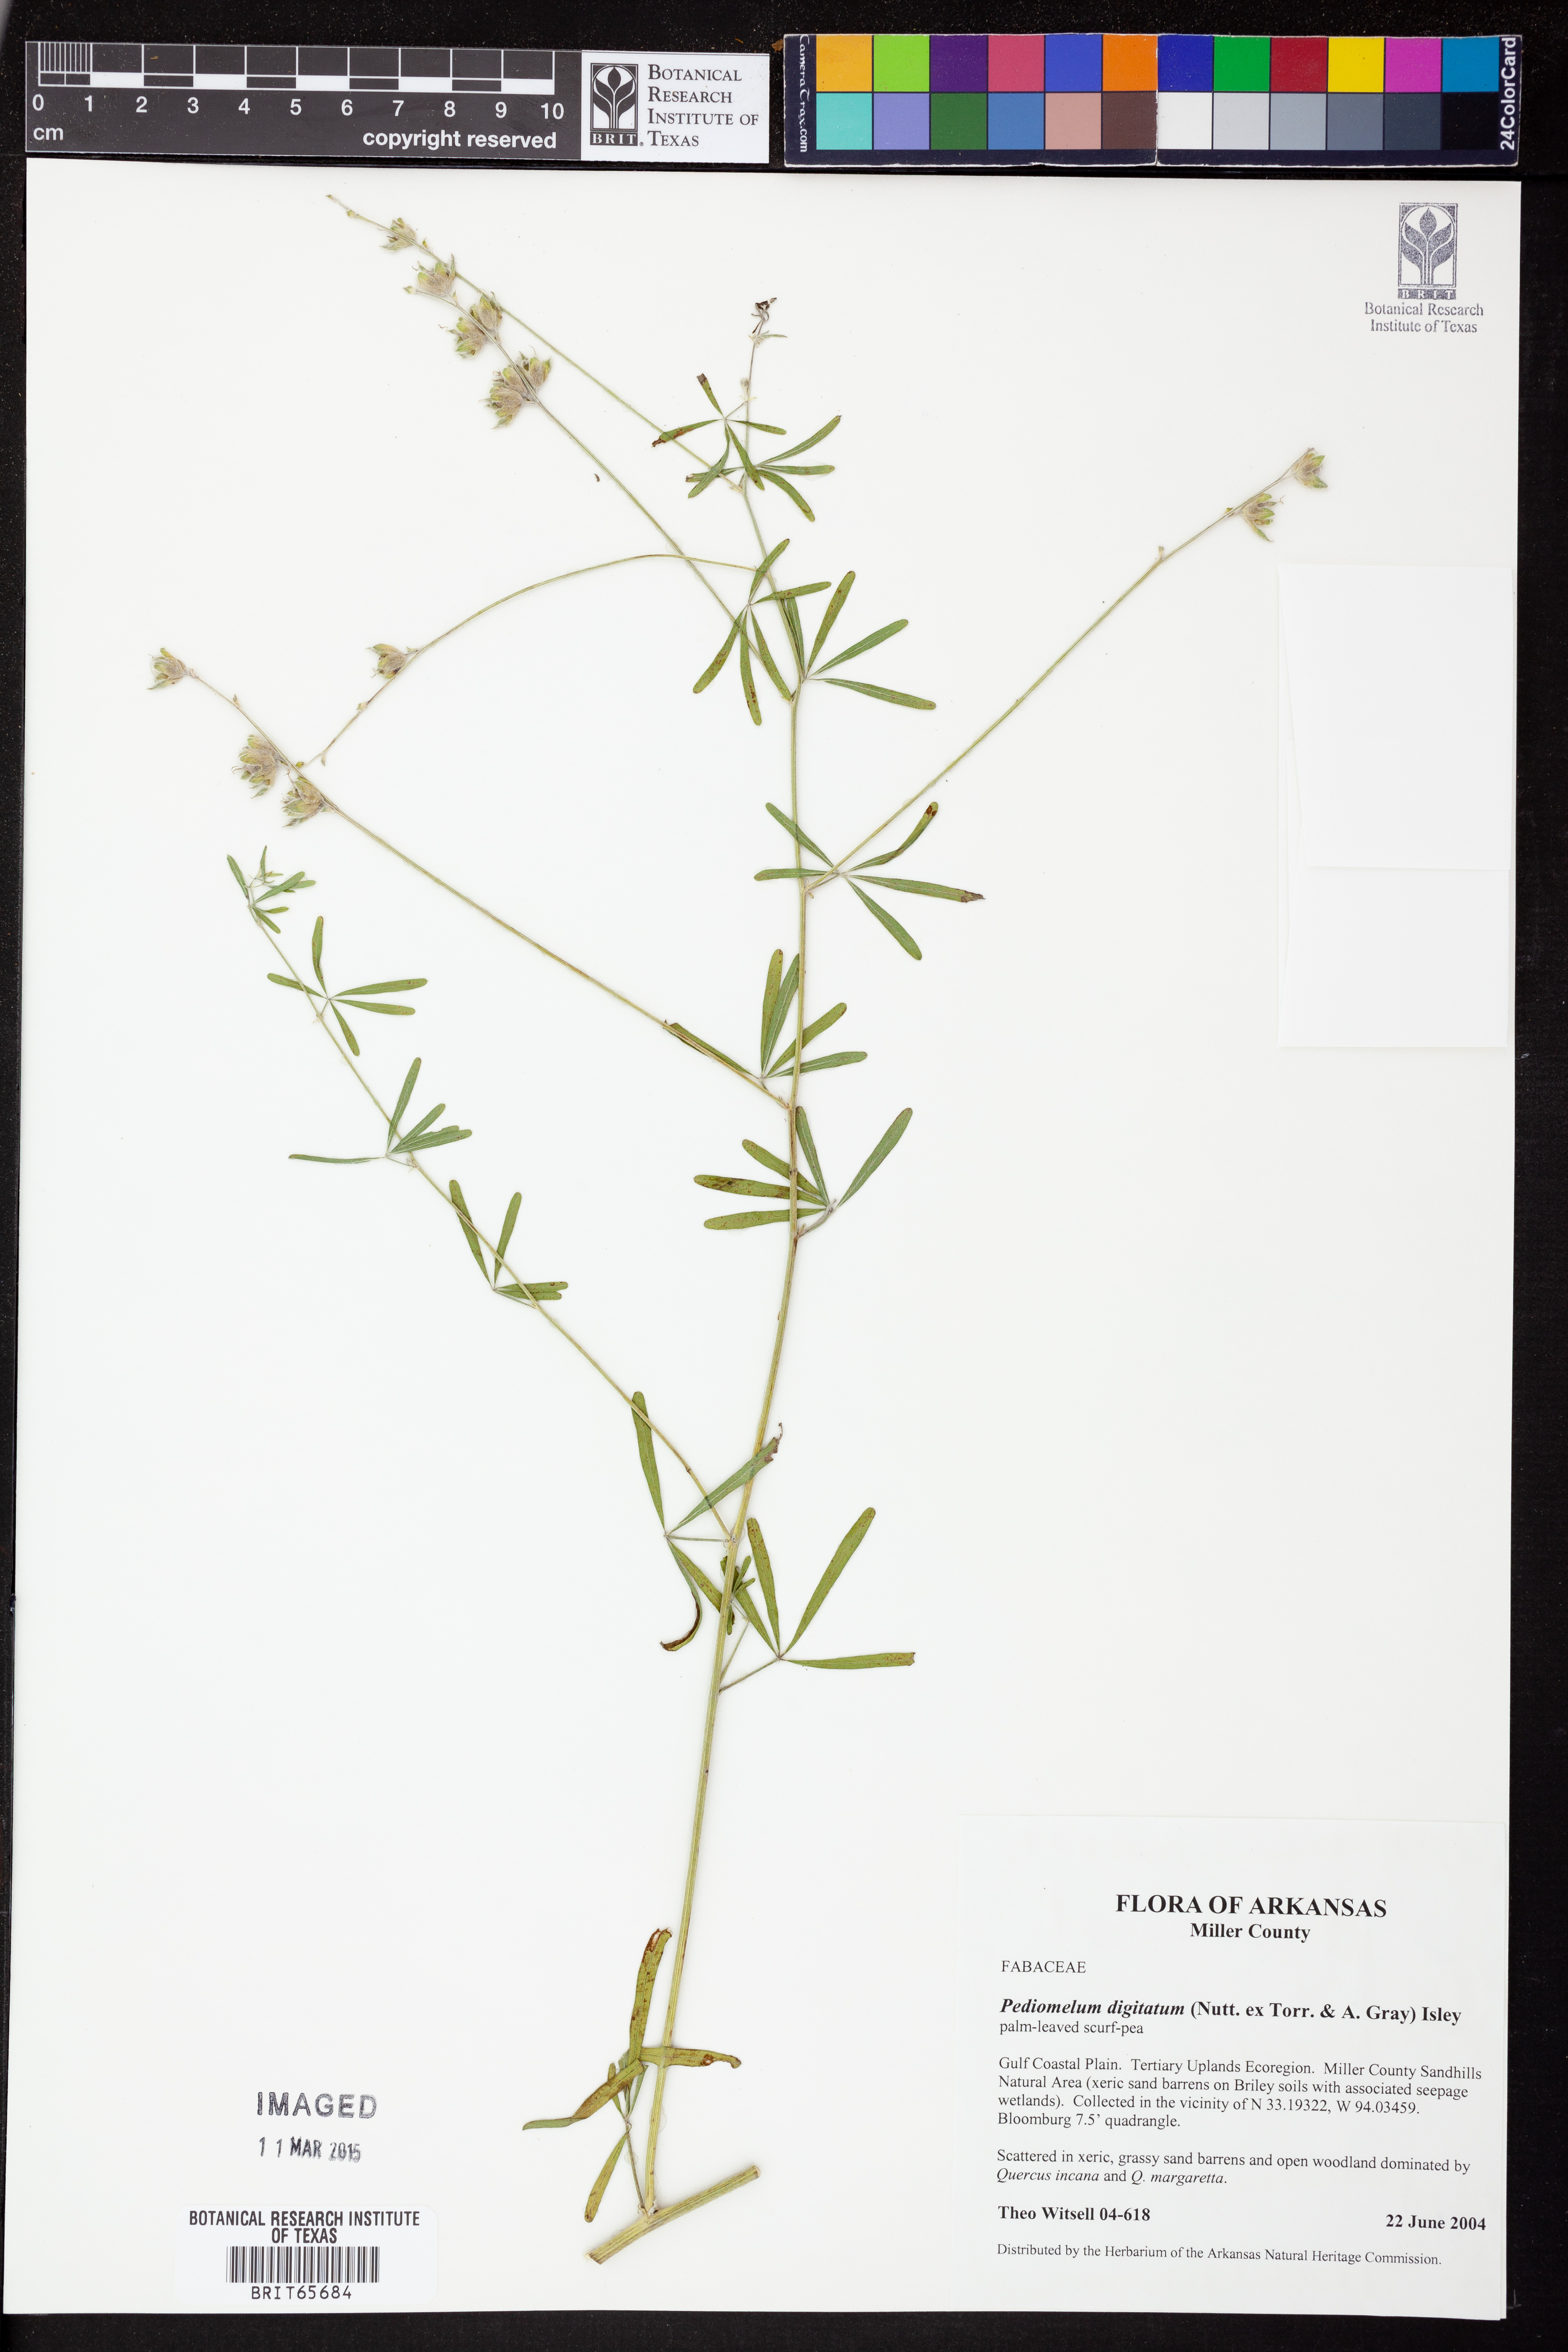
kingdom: Plantae
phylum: Tracheophyta
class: Magnoliopsida
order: Fabales
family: Fabaceae
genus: Pediomelum
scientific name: Pediomelum
